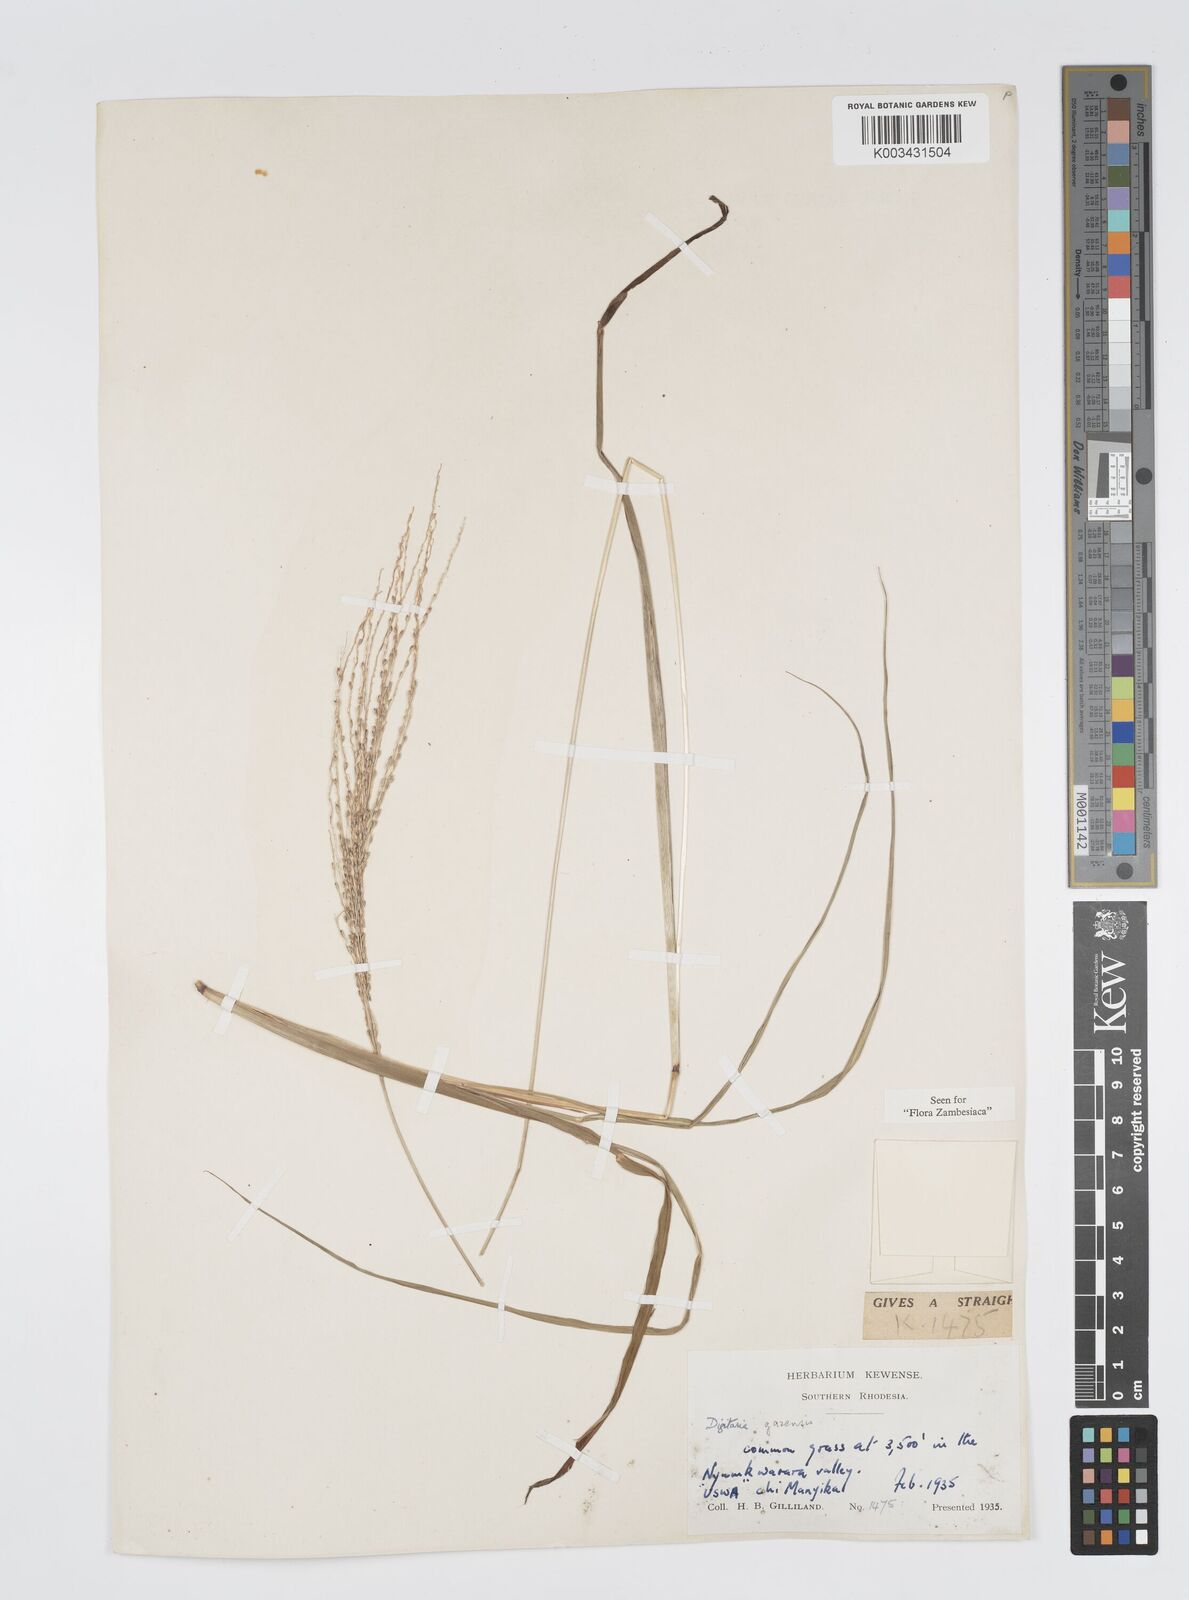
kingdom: Plantae
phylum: Tracheophyta
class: Liliopsida
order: Poales
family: Poaceae
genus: Digitaria
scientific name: Digitaria gazensis
